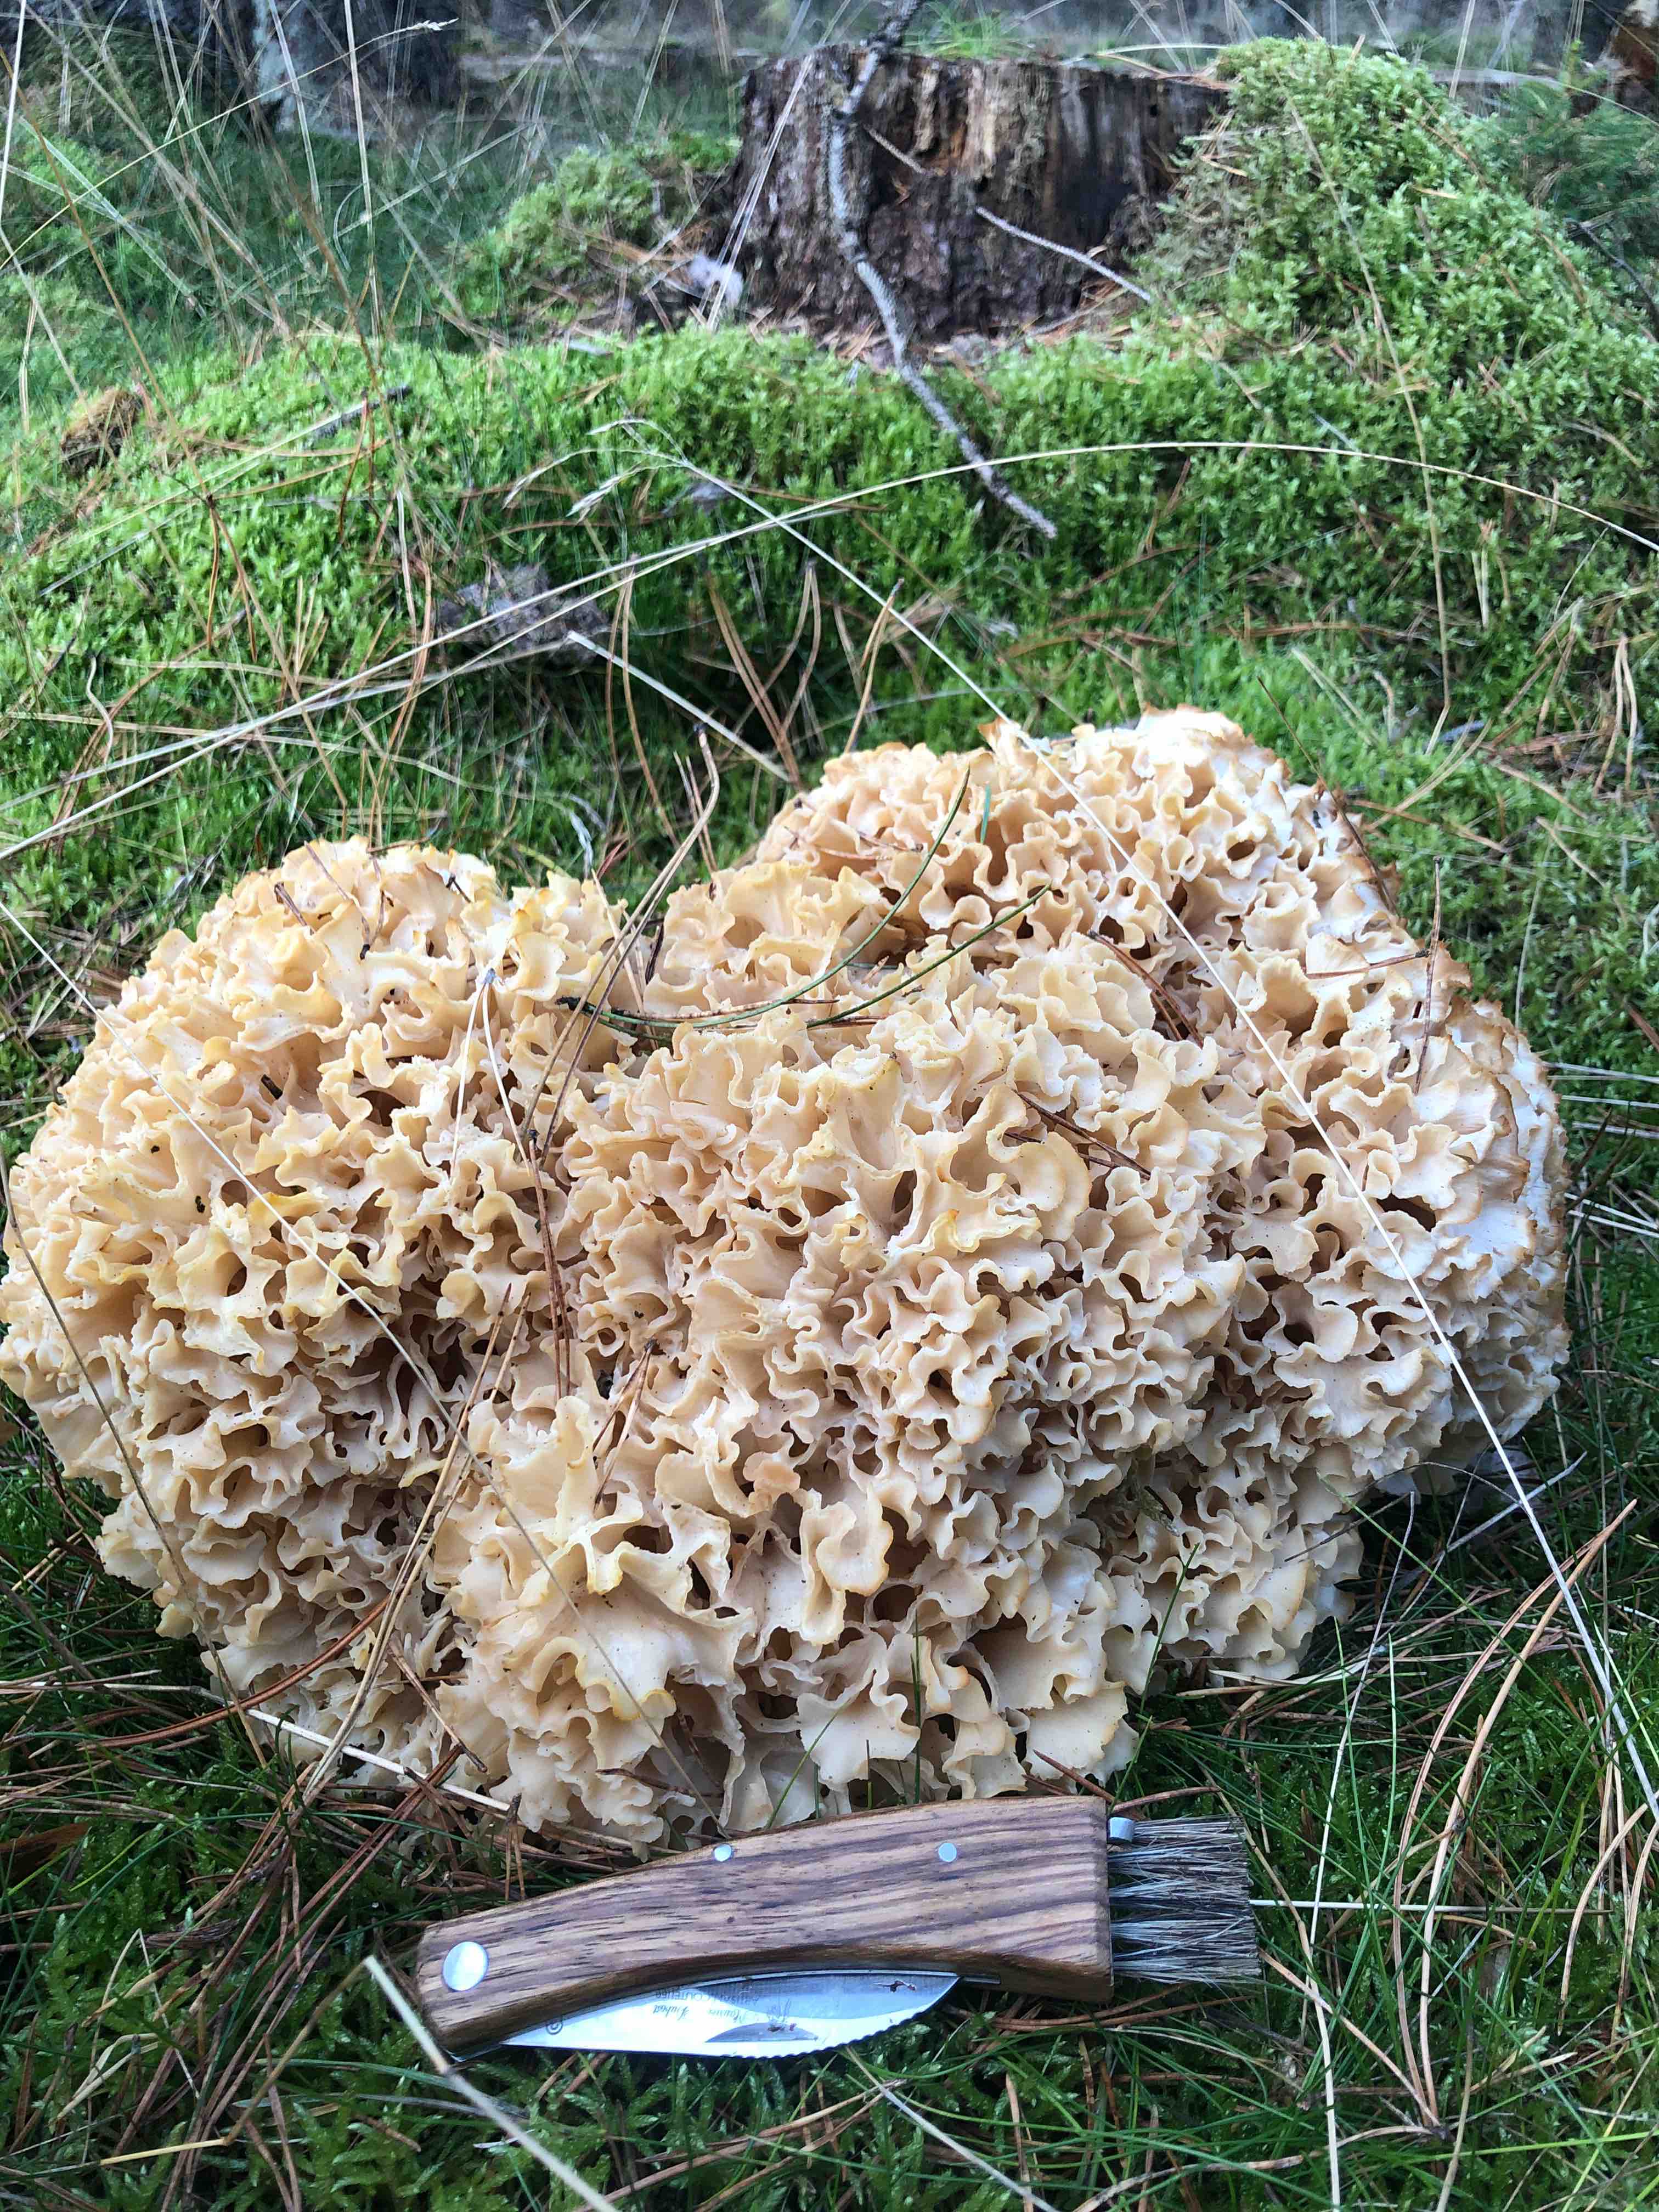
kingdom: Fungi
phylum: Basidiomycota
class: Agaricomycetes
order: Polyporales
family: Sparassidaceae
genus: Sparassis
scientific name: Sparassis crispa
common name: kruset blomkålssvamp
